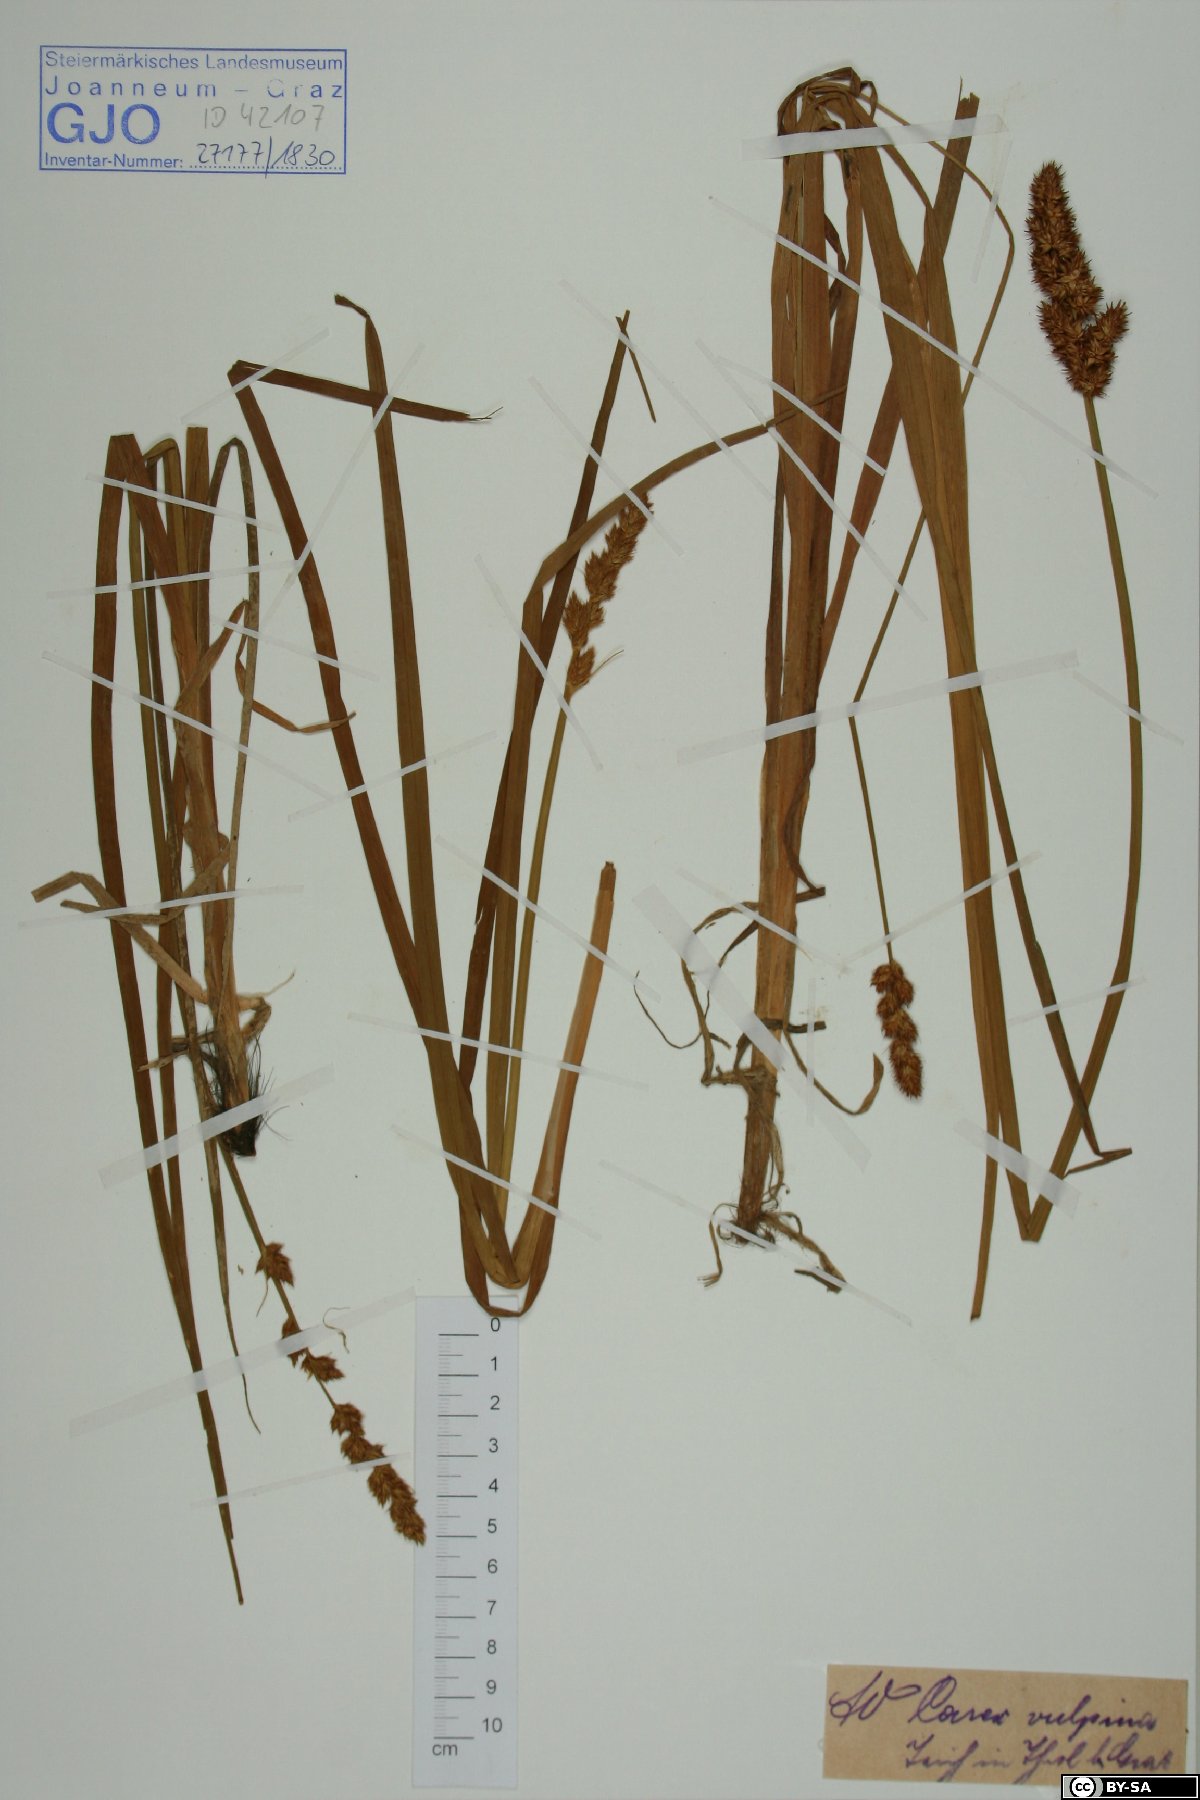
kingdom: Plantae
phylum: Tracheophyta
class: Liliopsida
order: Poales
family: Cyperaceae
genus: Carex
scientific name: Carex vulpina
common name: True fox-sedge
